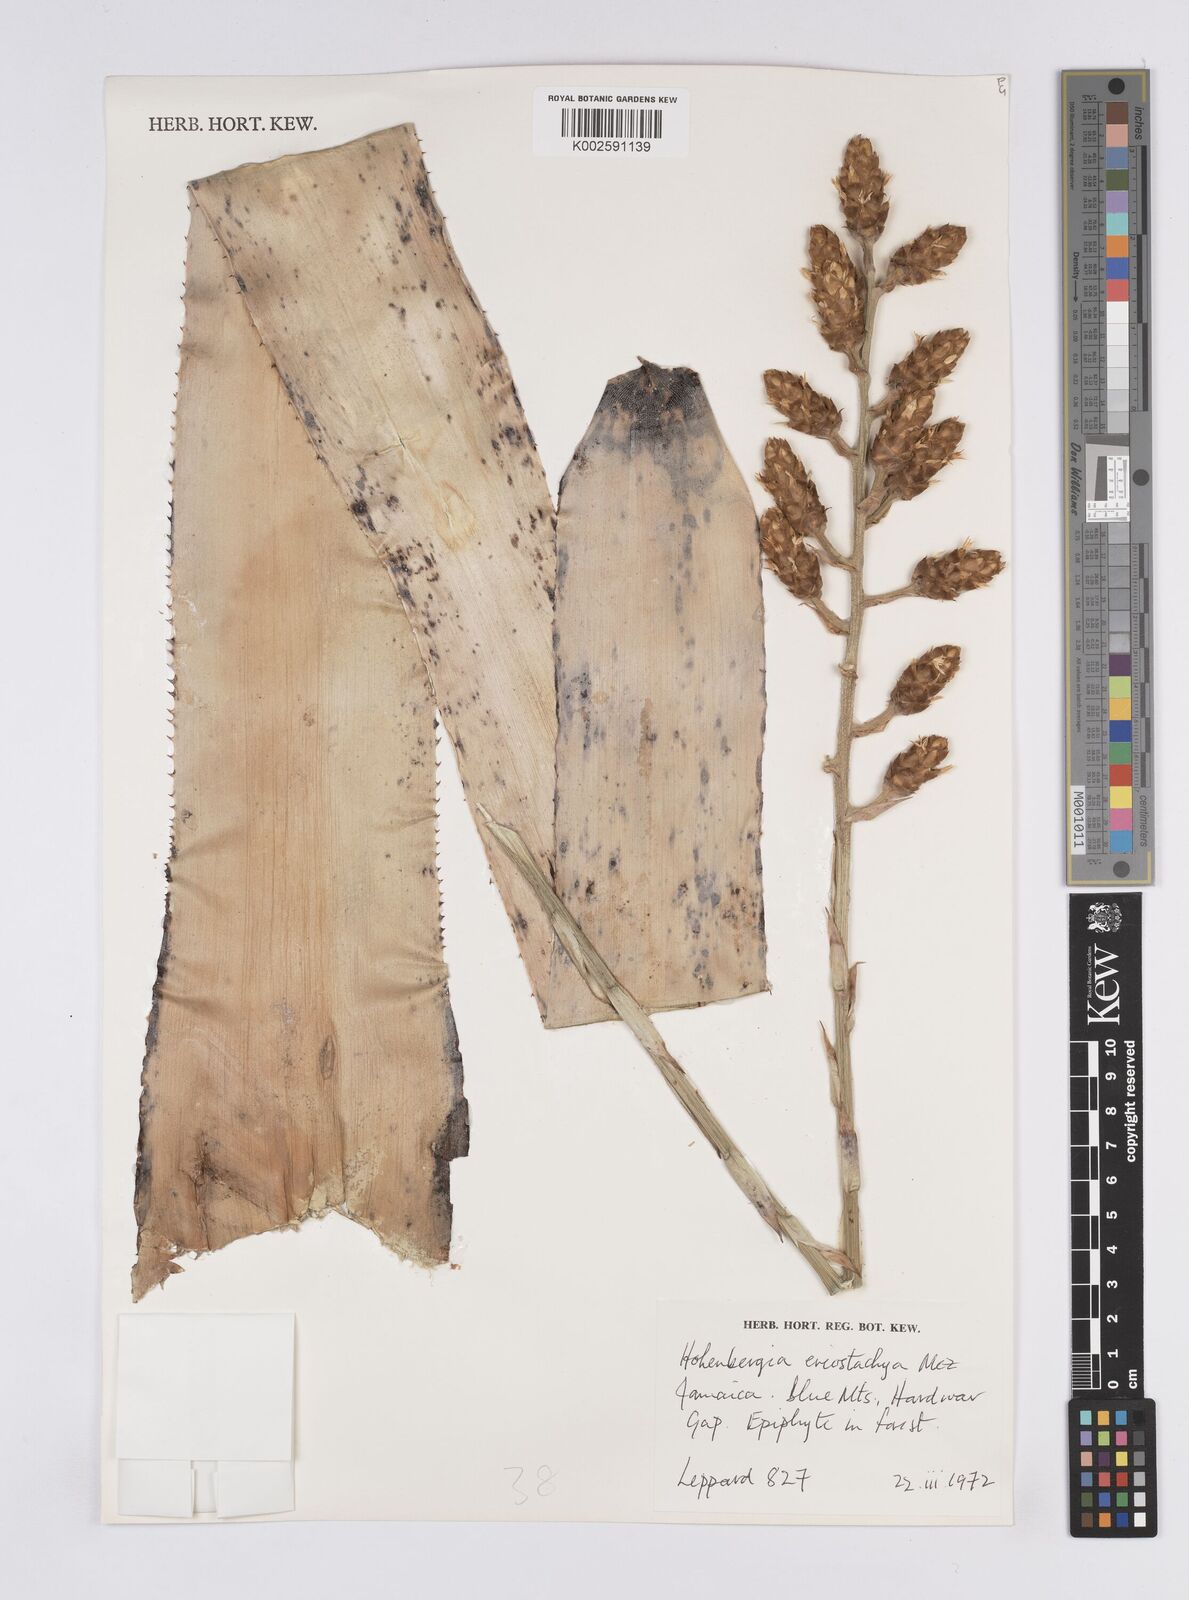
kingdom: Plantae
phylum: Tracheophyta
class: Liliopsida
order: Poales
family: Bromeliaceae
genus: Wittmackia
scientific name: Wittmackia eriostachya
